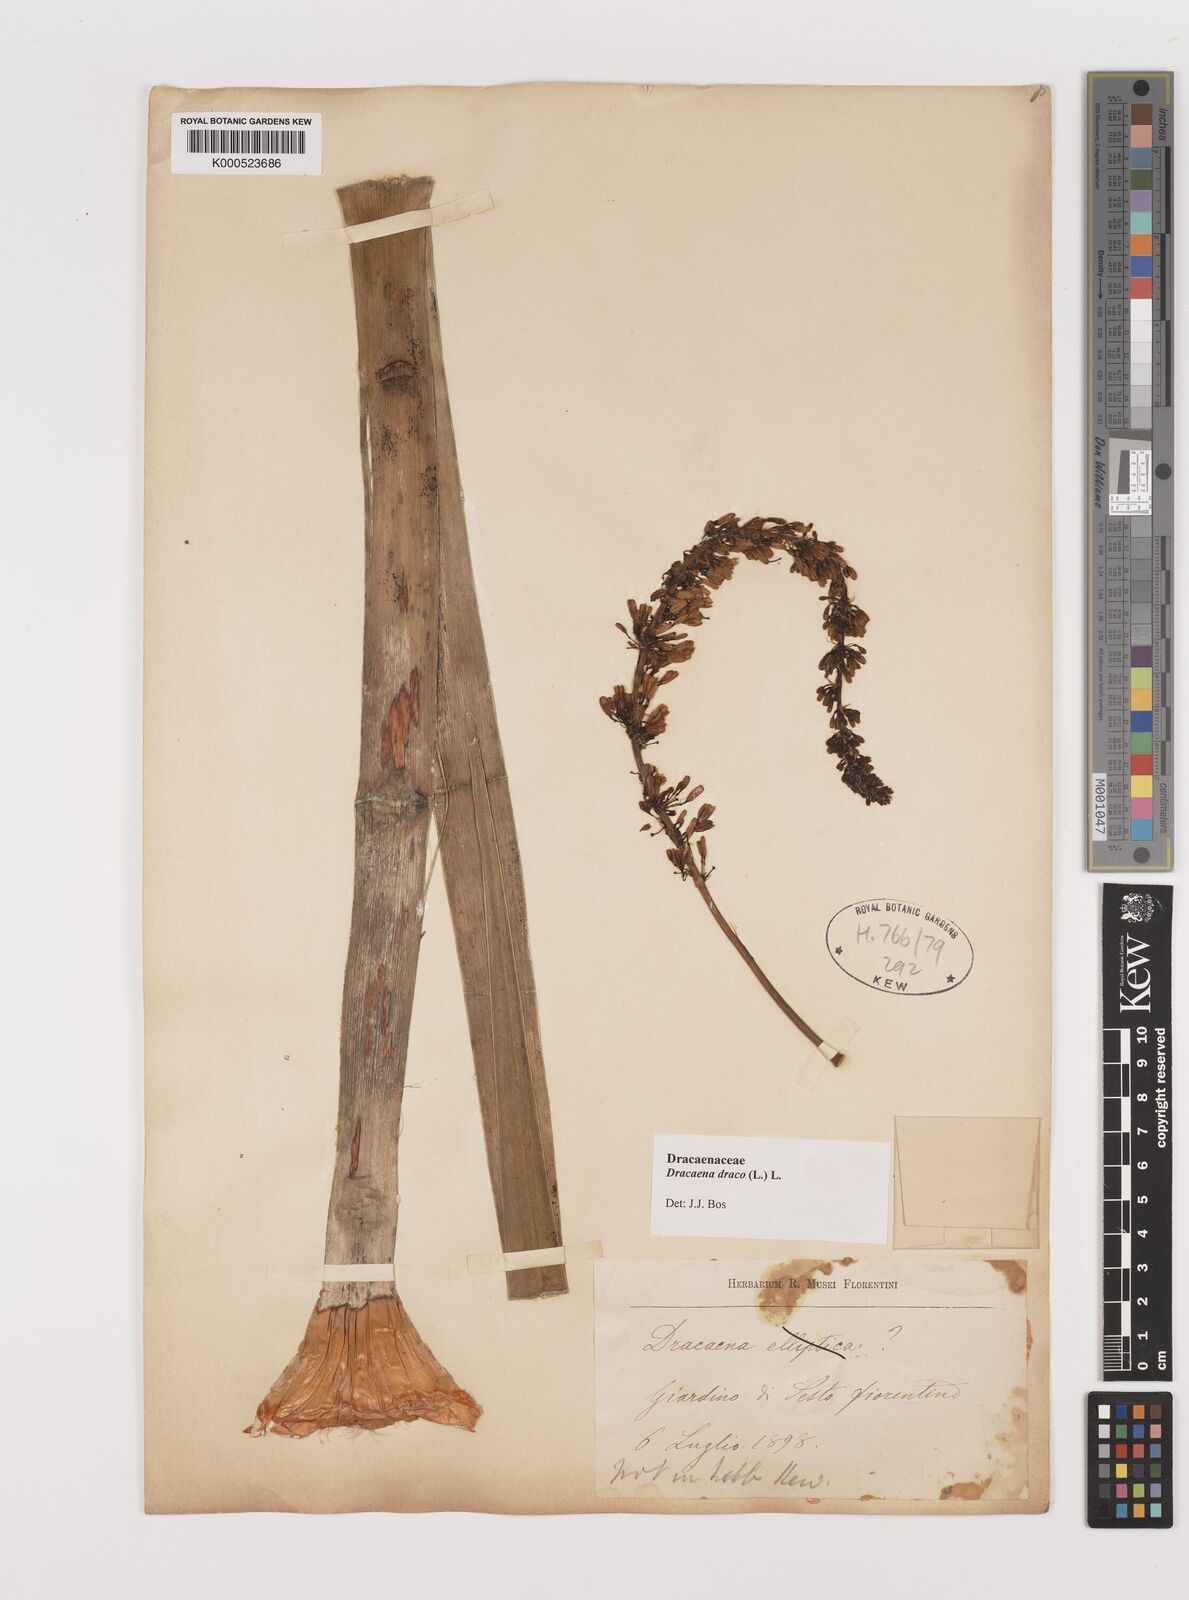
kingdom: Plantae
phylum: Tracheophyta
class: Liliopsida
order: Asparagales
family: Asparagaceae
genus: Dracaena
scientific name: Dracaena draco
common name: Canary island dragon tree
